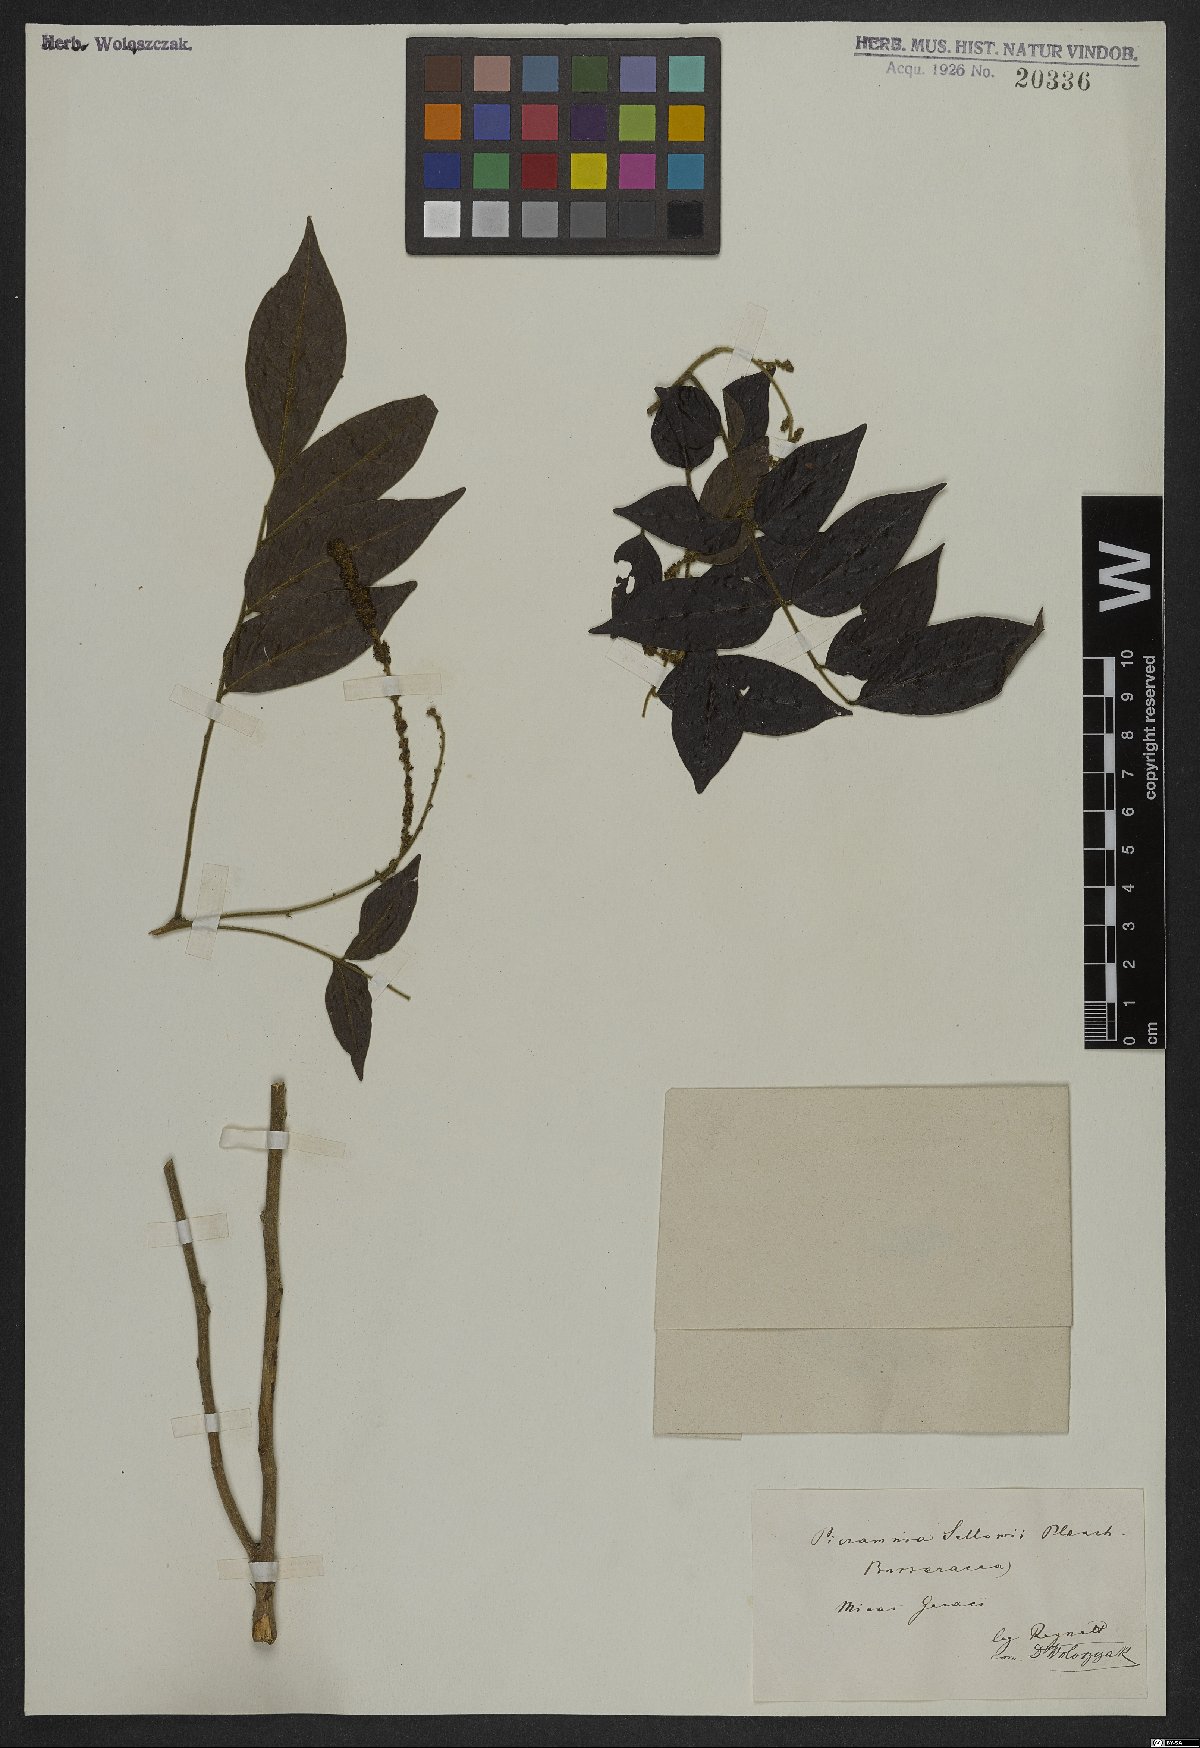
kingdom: Plantae
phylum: Tracheophyta
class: Magnoliopsida
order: Picramniales
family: Picramniaceae
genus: Picramnia
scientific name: Picramnia sellowii
